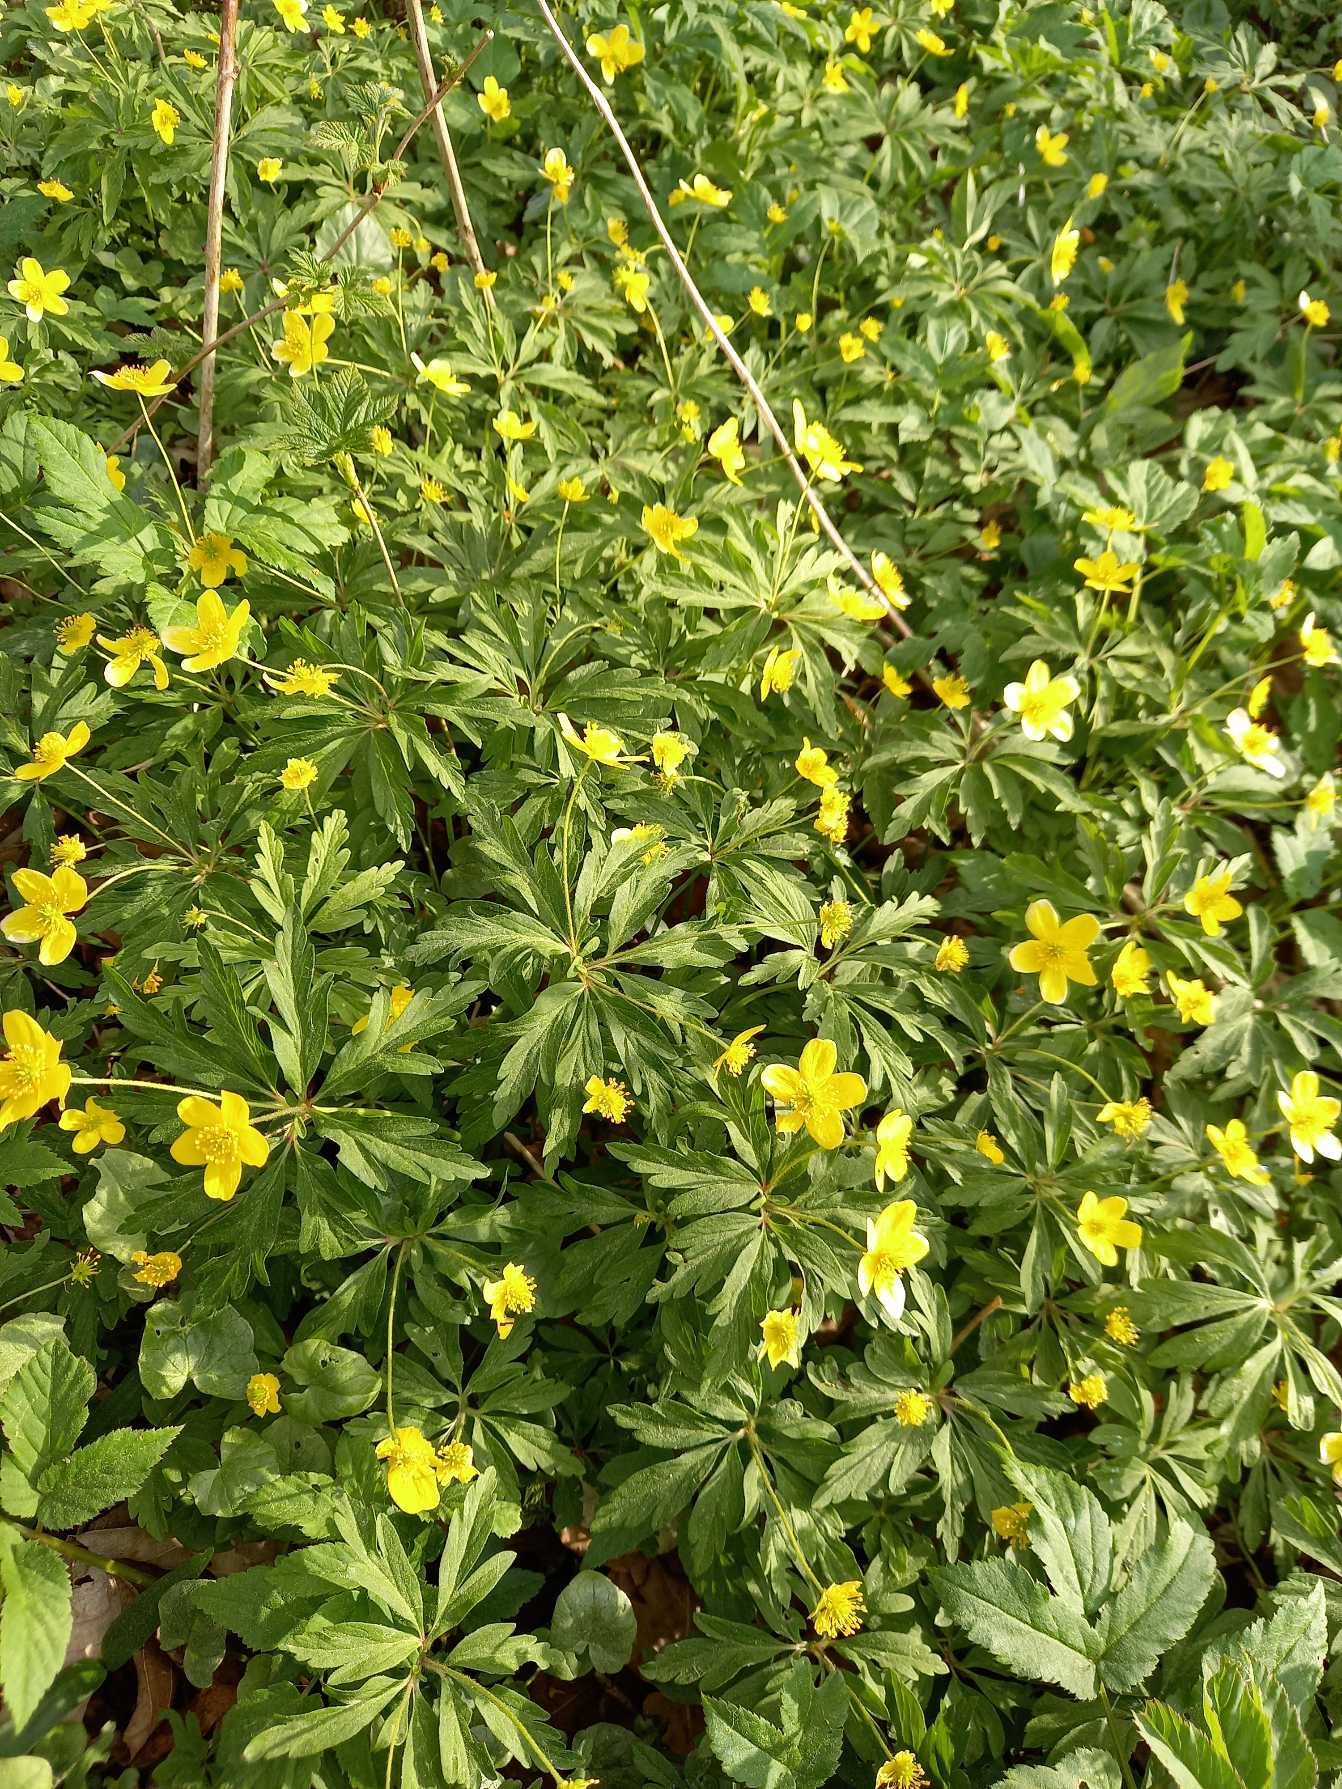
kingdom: Plantae
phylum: Tracheophyta
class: Magnoliopsida
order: Ranunculales
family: Ranunculaceae
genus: Anemone
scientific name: Anemone ranunculoides
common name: Gul anemone
